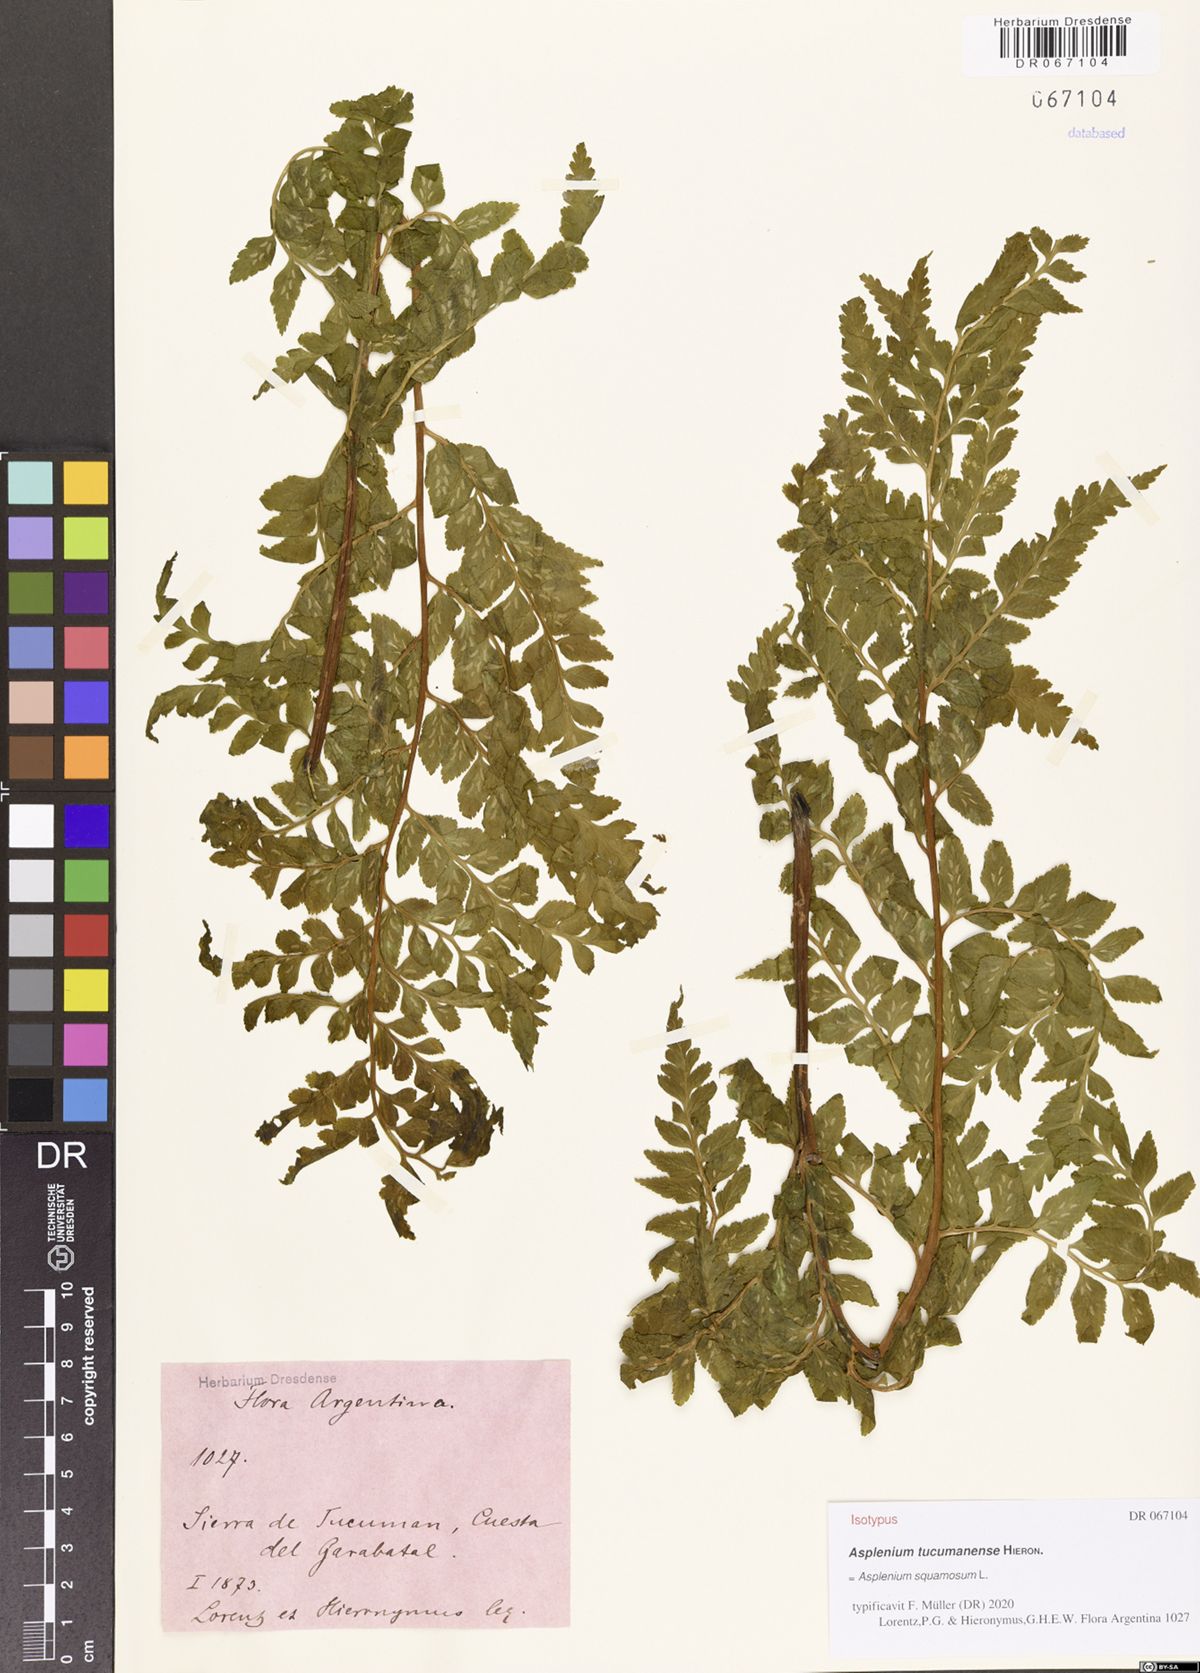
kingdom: Plantae
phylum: Tracheophyta
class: Polypodiopsida
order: Polypodiales
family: Aspleniaceae
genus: Asplenium
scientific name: Asplenium squamosum
